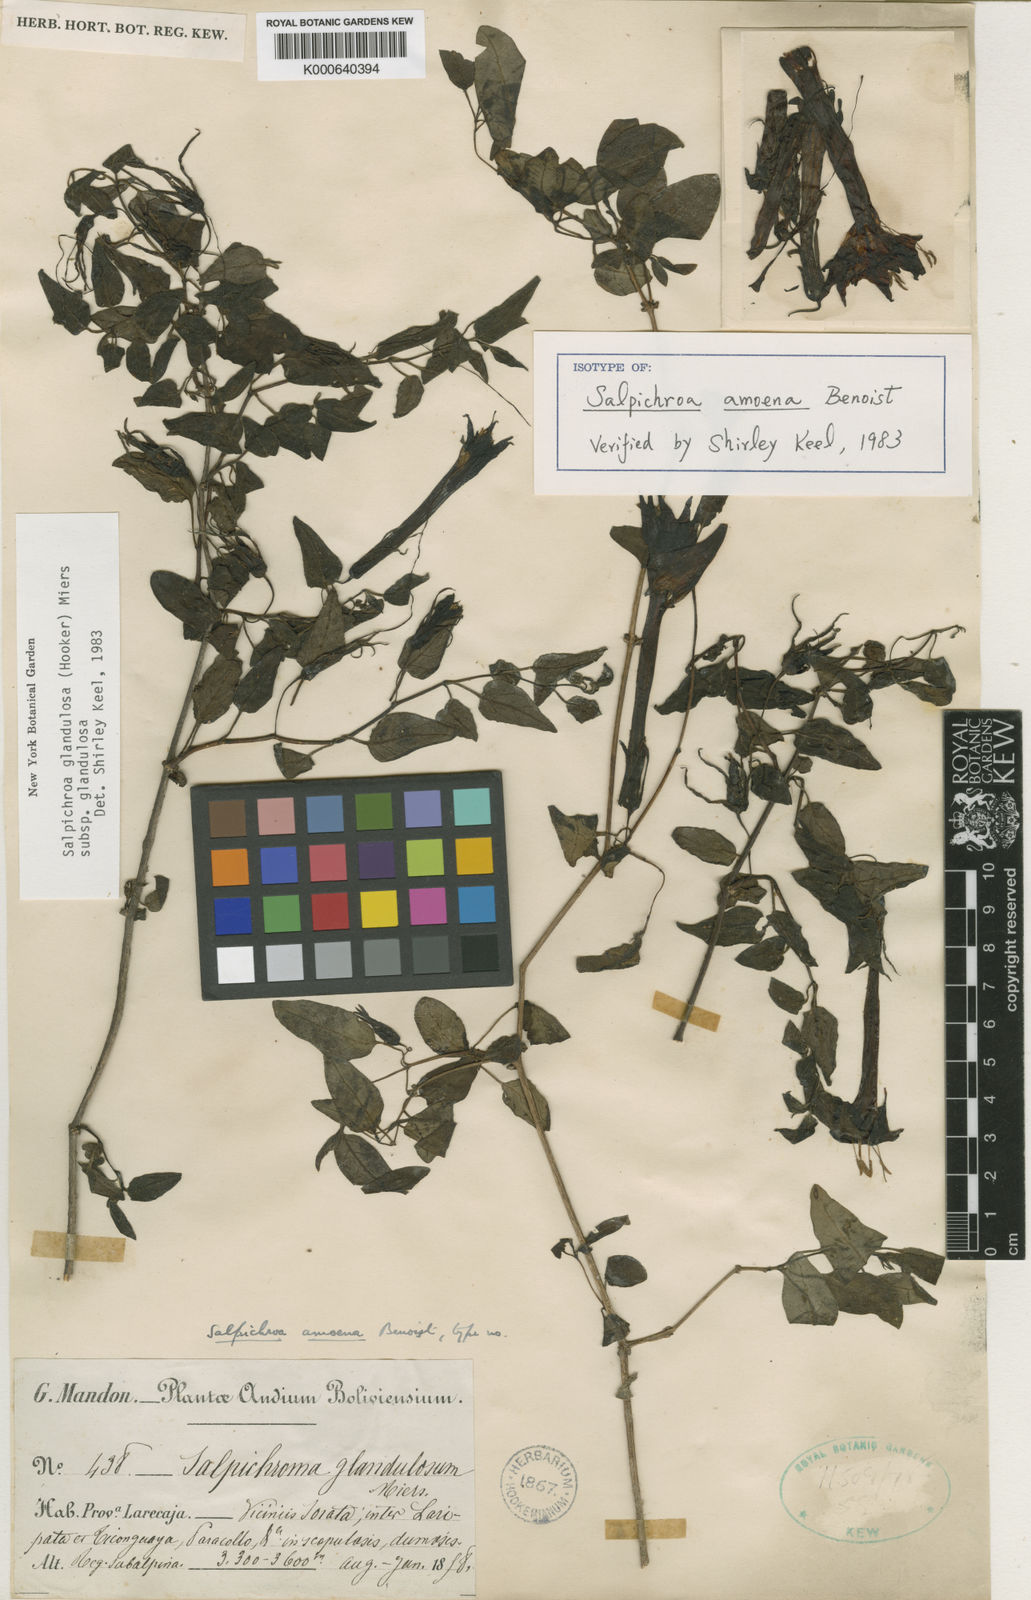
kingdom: Plantae
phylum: Tracheophyta
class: Magnoliopsida
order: Solanales
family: Solanaceae
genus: Salpichroa
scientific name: Salpichroa glandulosa
